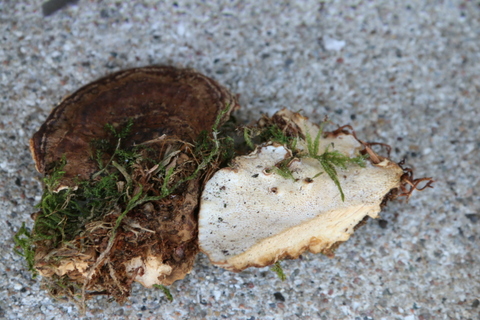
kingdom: Fungi
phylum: Basidiomycota
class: Agaricomycetes
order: Russulales
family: Bondarzewiaceae
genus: Heterobasidion
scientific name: Heterobasidion
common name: rodfordærver
